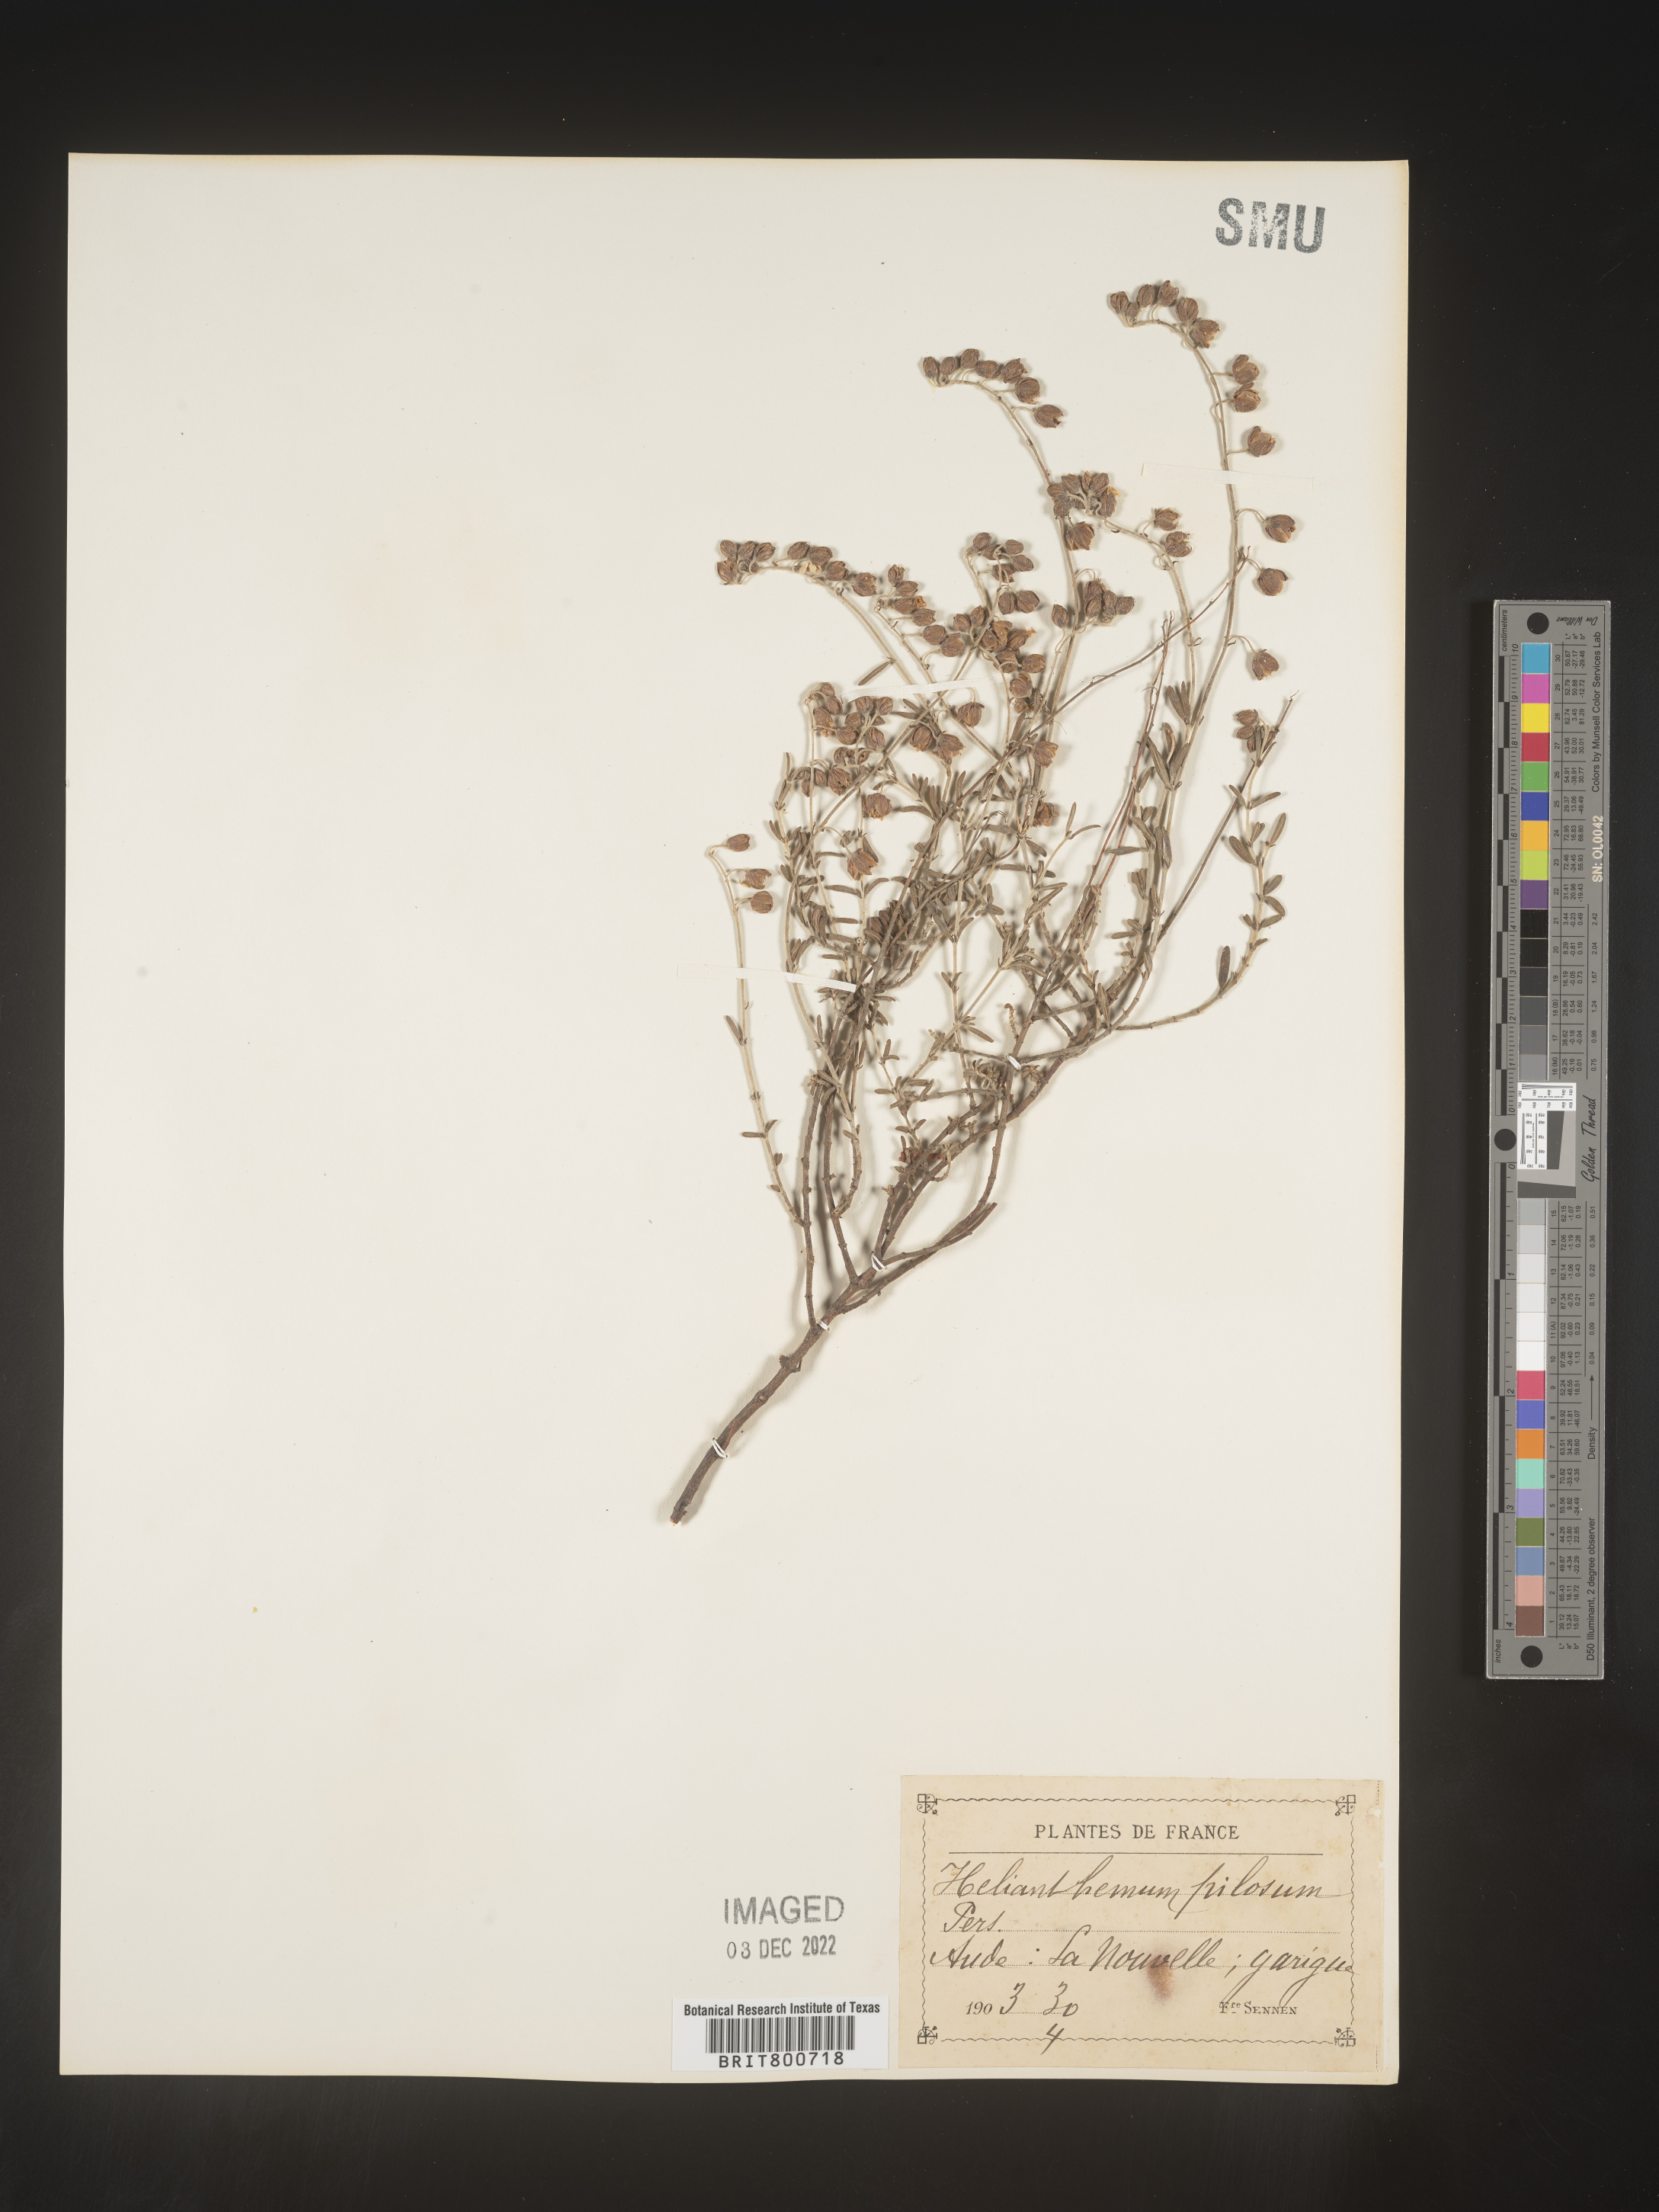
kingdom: Plantae
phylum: Tracheophyta
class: Magnoliopsida
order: Malvales
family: Cistaceae
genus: Helianthemum
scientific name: Helianthemum
